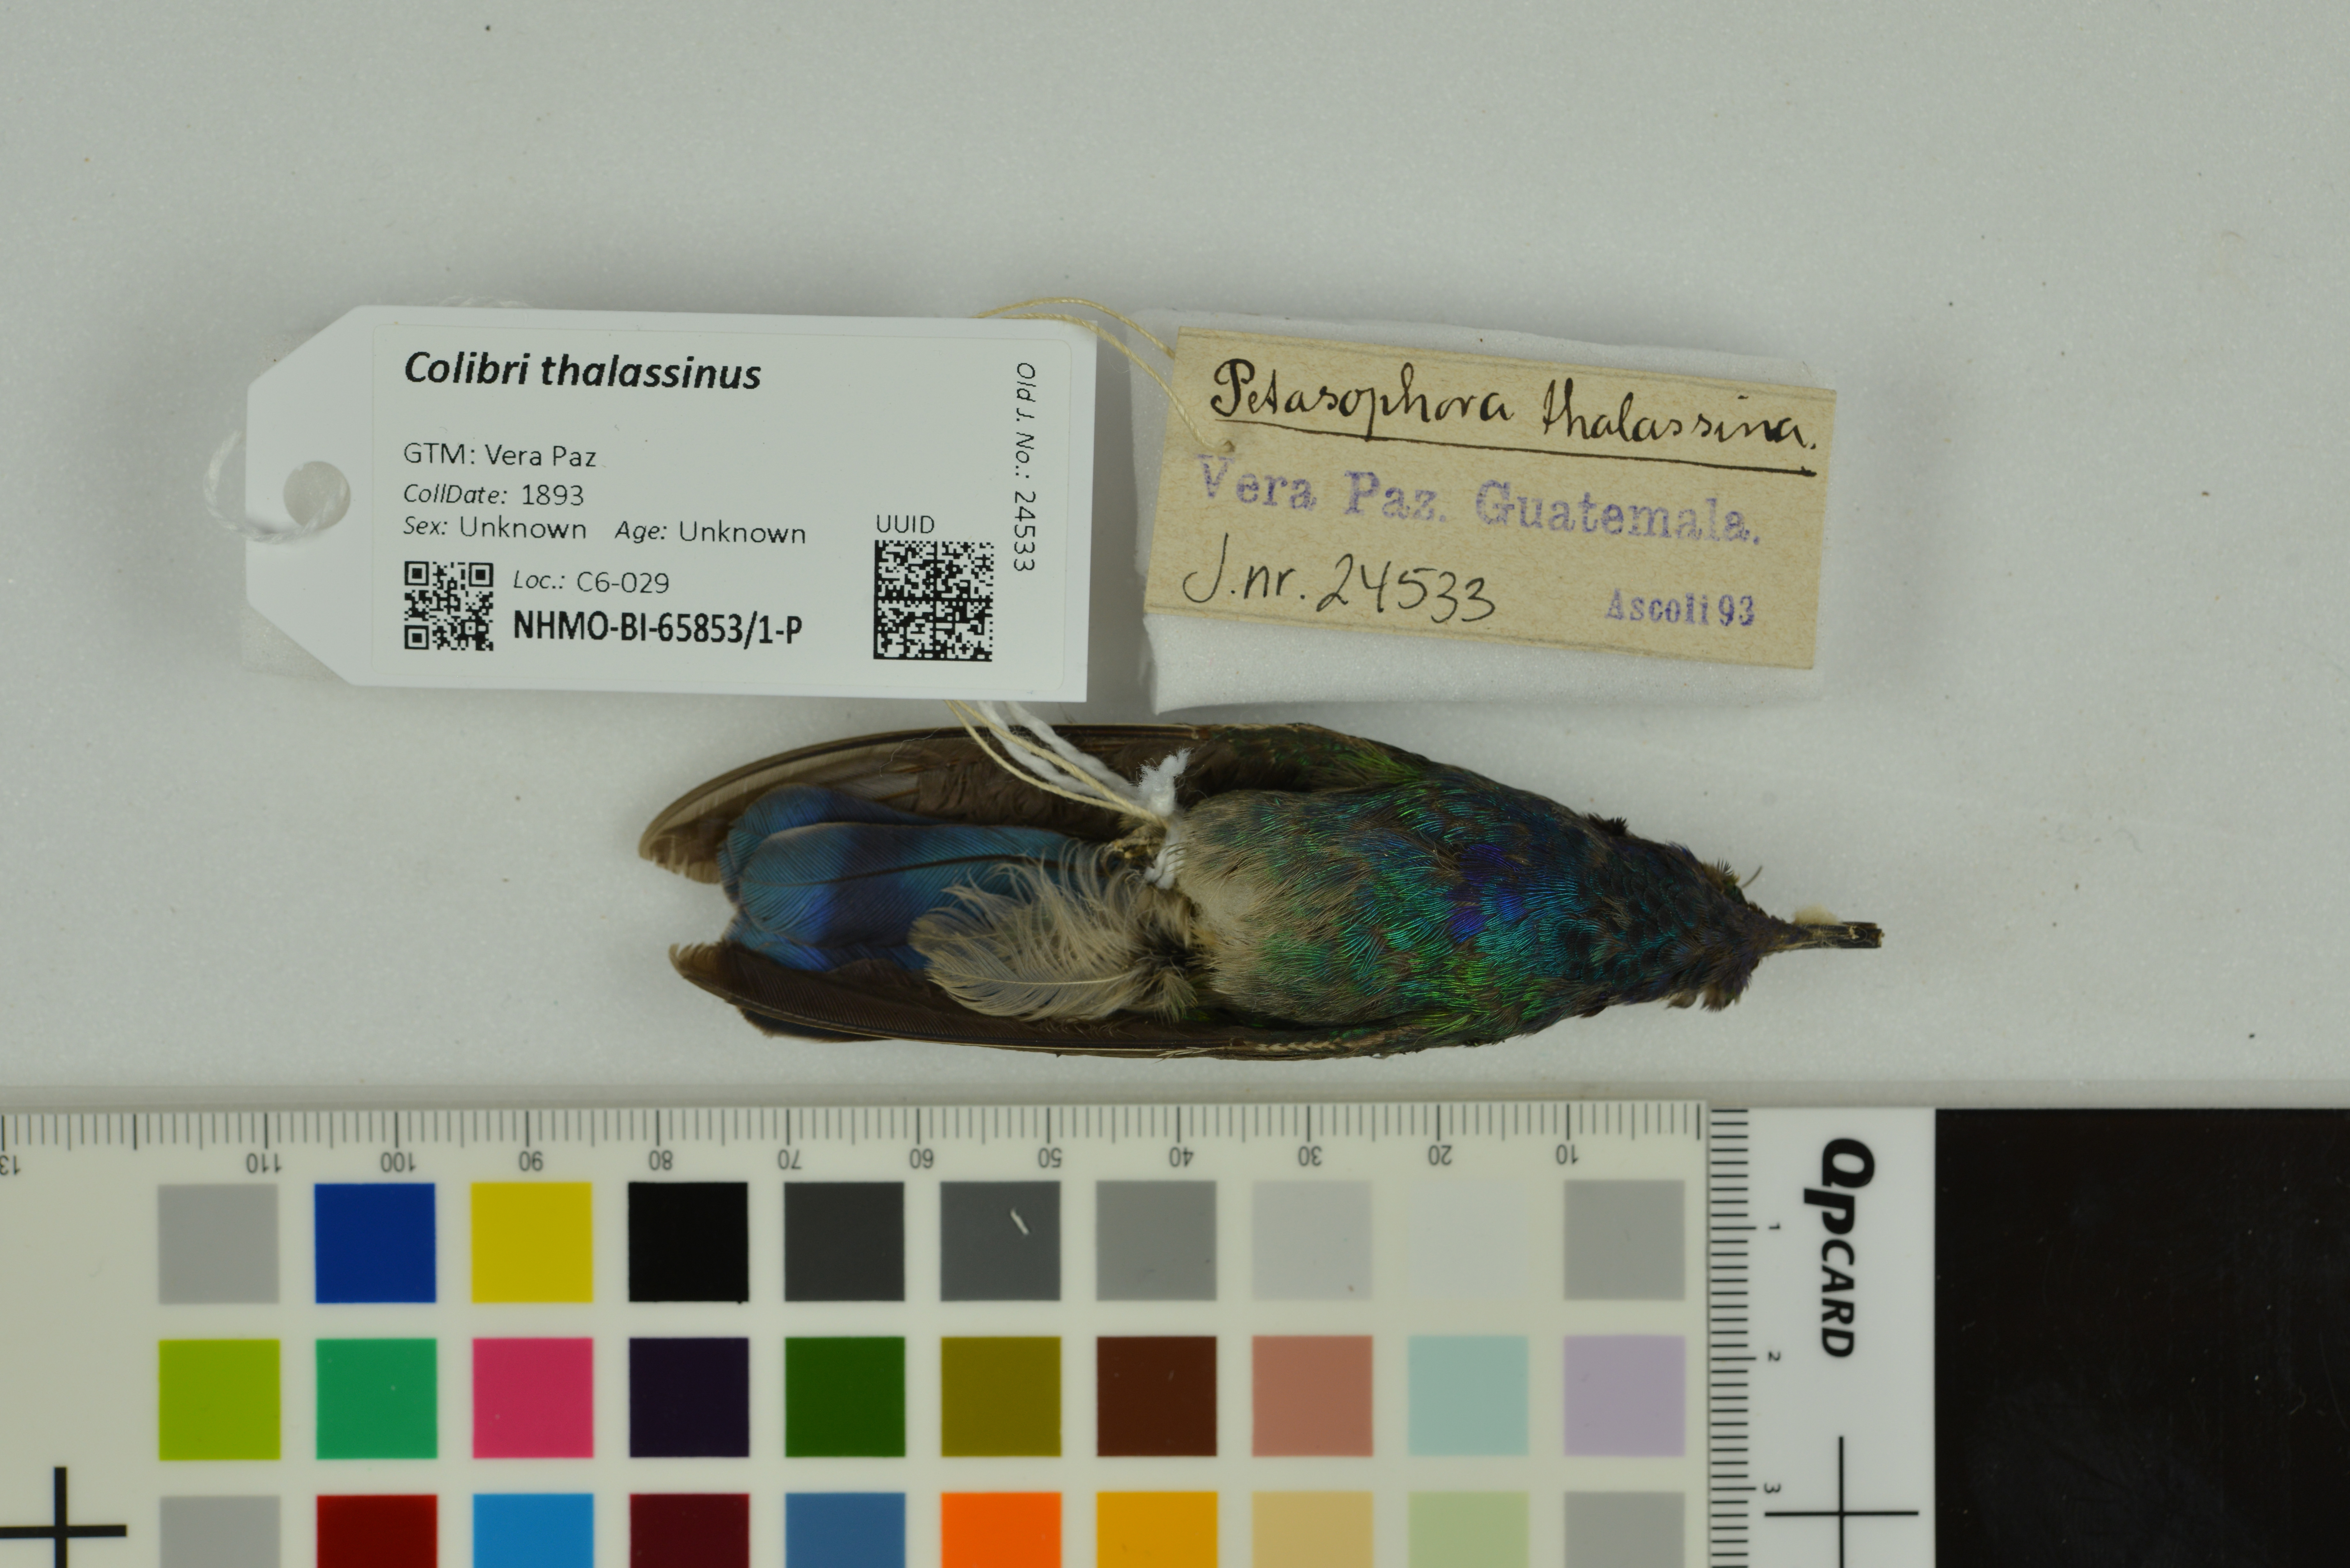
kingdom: Animalia
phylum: Chordata
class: Aves
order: Apodiformes
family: Trochilidae
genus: Colibri
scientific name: Colibri thalassinus
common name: Green violetear
